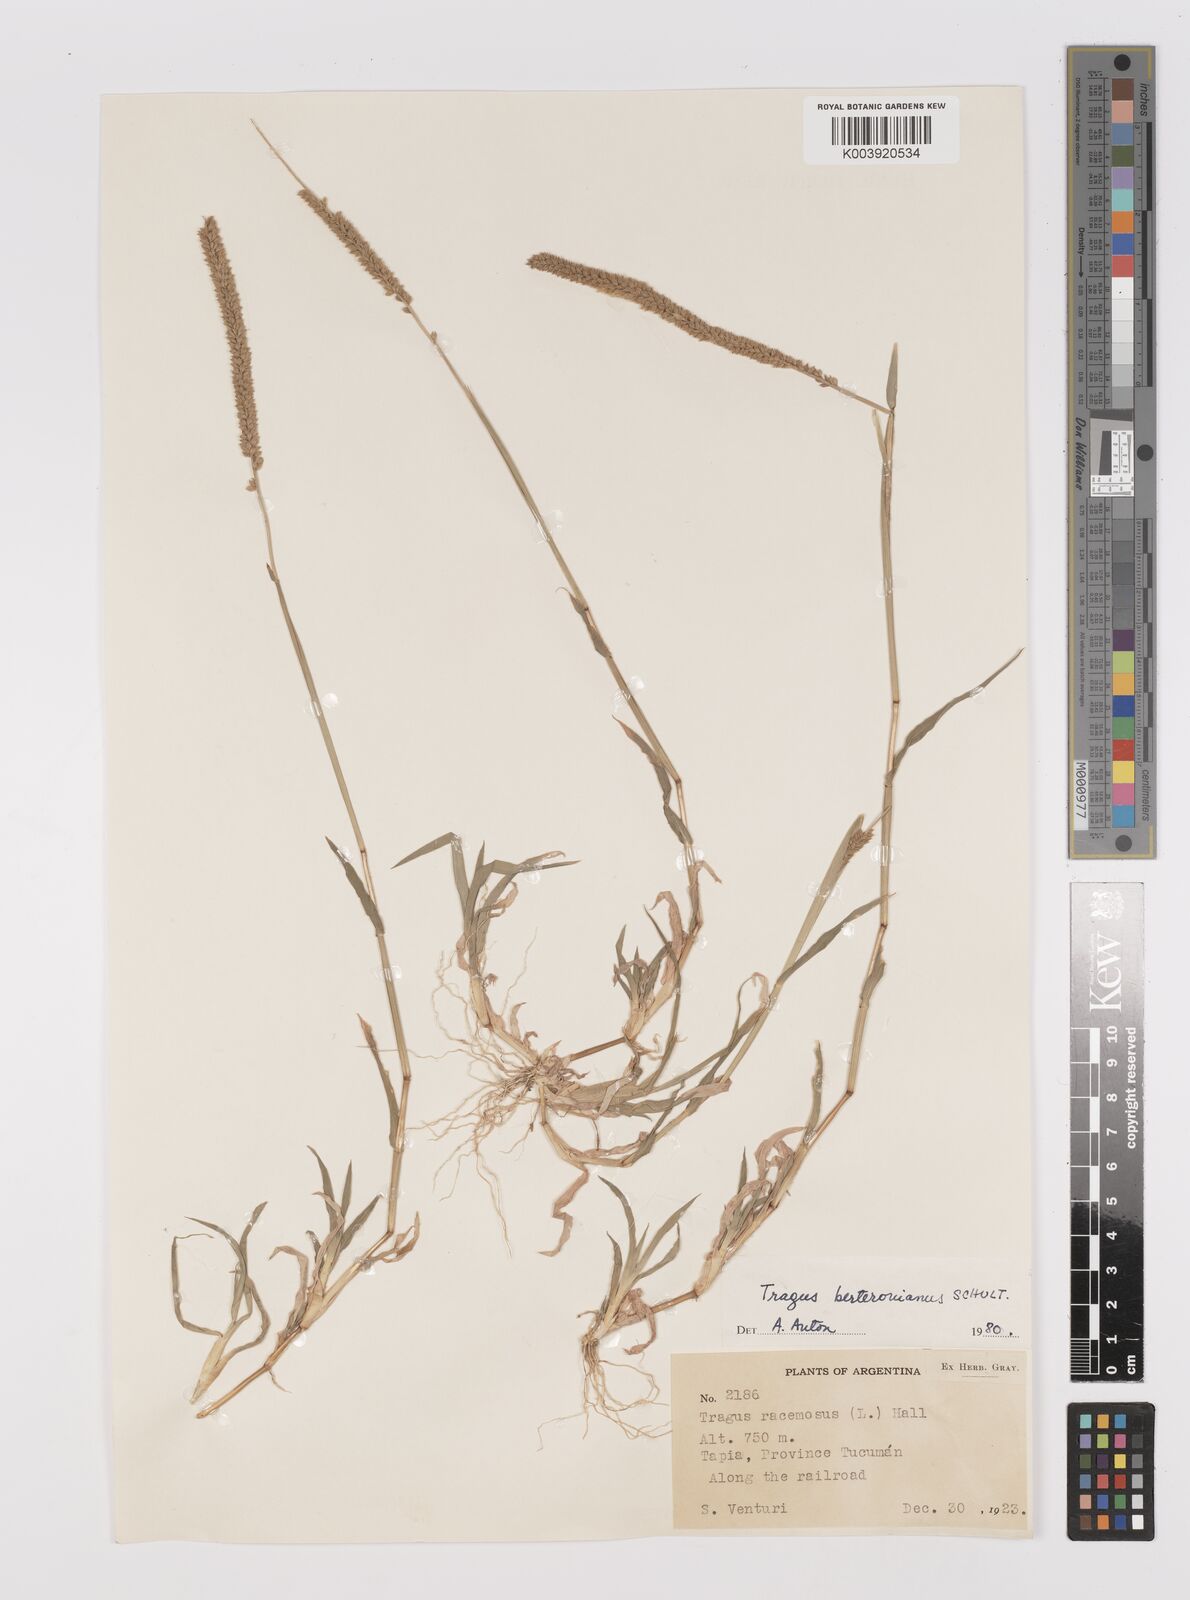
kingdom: Plantae
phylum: Tracheophyta
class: Liliopsida
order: Poales
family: Poaceae
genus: Tragus
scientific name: Tragus berteronianus
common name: African bur-grass
